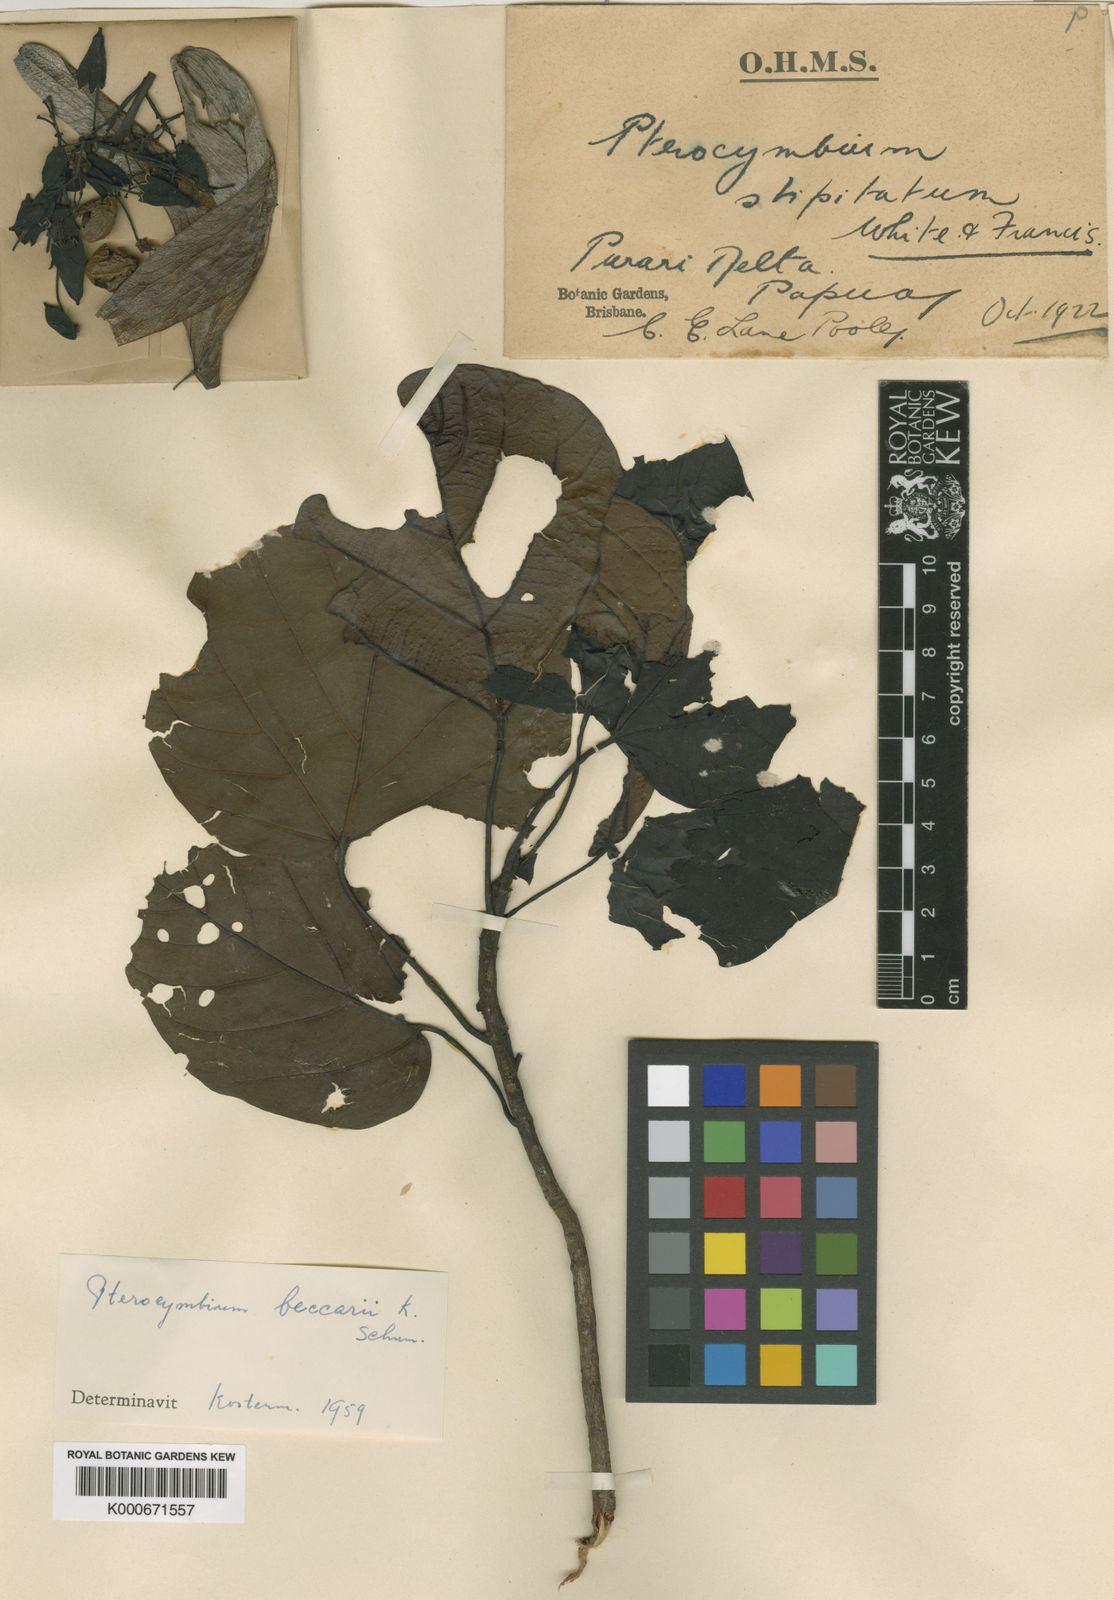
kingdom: Plantae
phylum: Tracheophyta
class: Magnoliopsida
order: Malvales
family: Malvaceae
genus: Pterocymbium
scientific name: Pterocymbium beccarii
